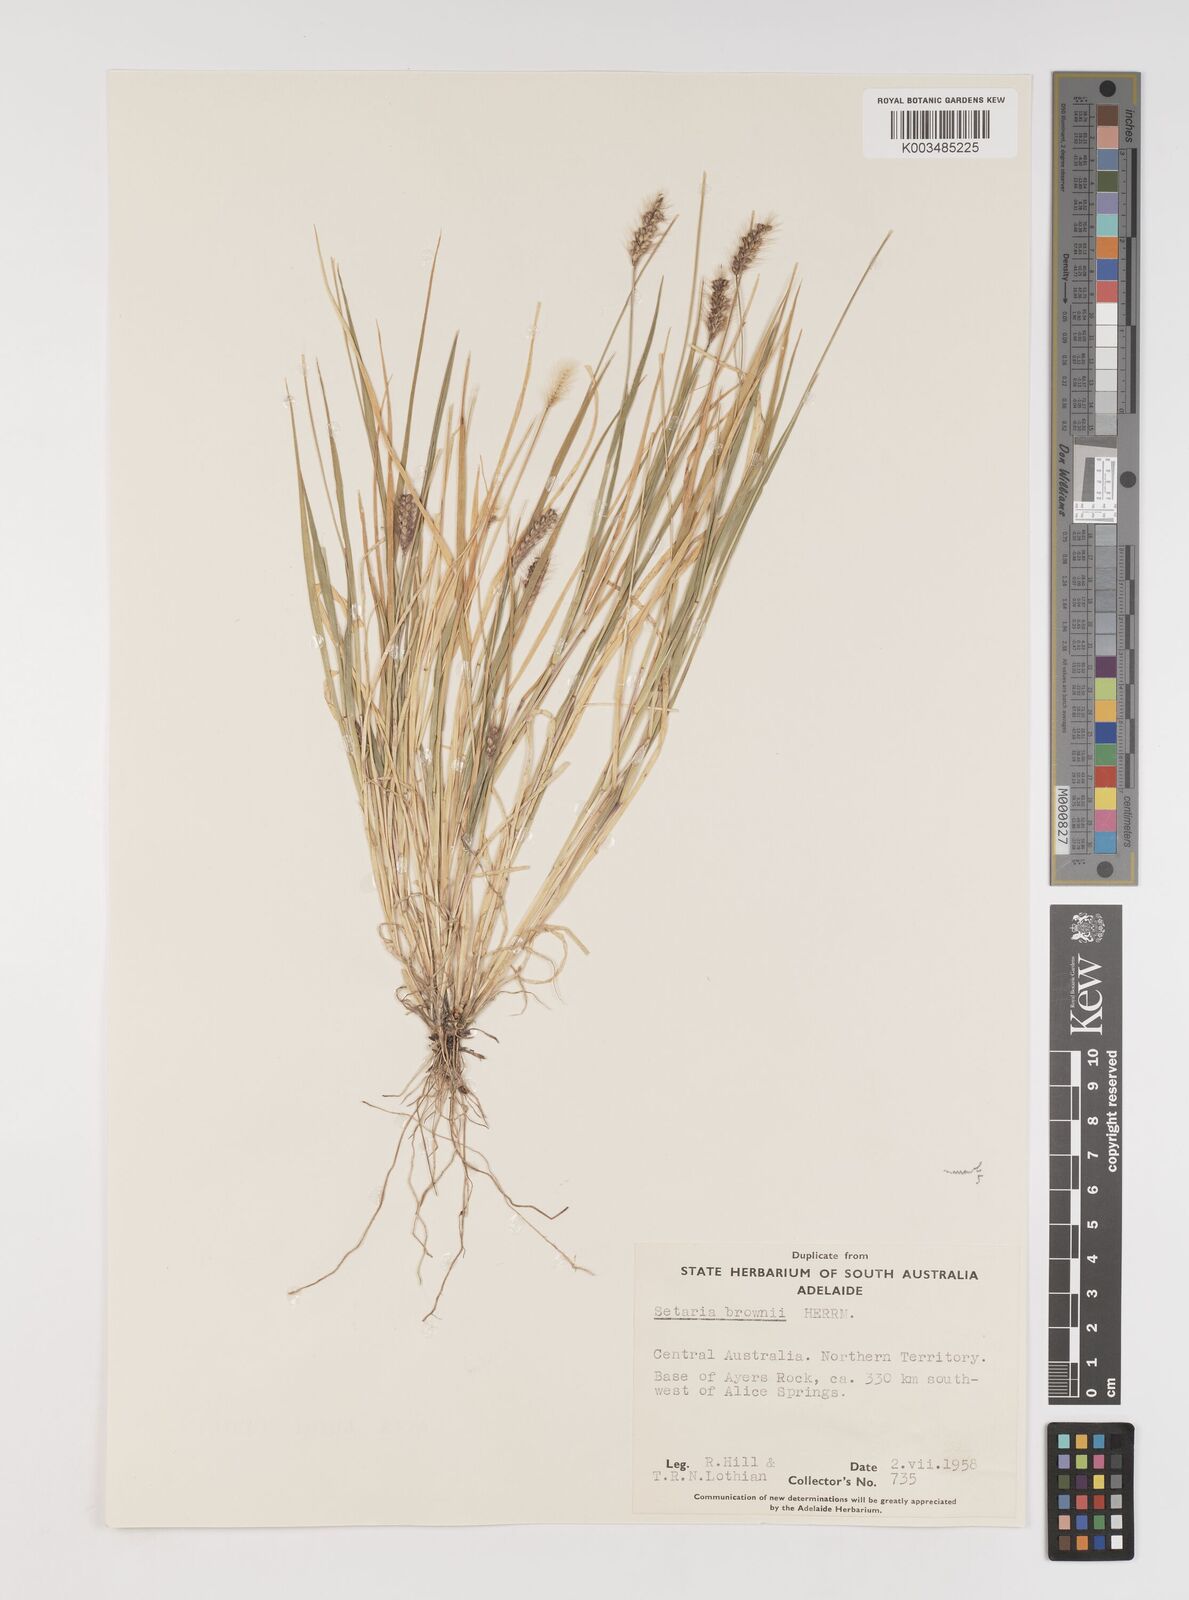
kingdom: Plantae
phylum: Tracheophyta
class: Liliopsida
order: Poales
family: Poaceae
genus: Setaria
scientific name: Setaria surgens
